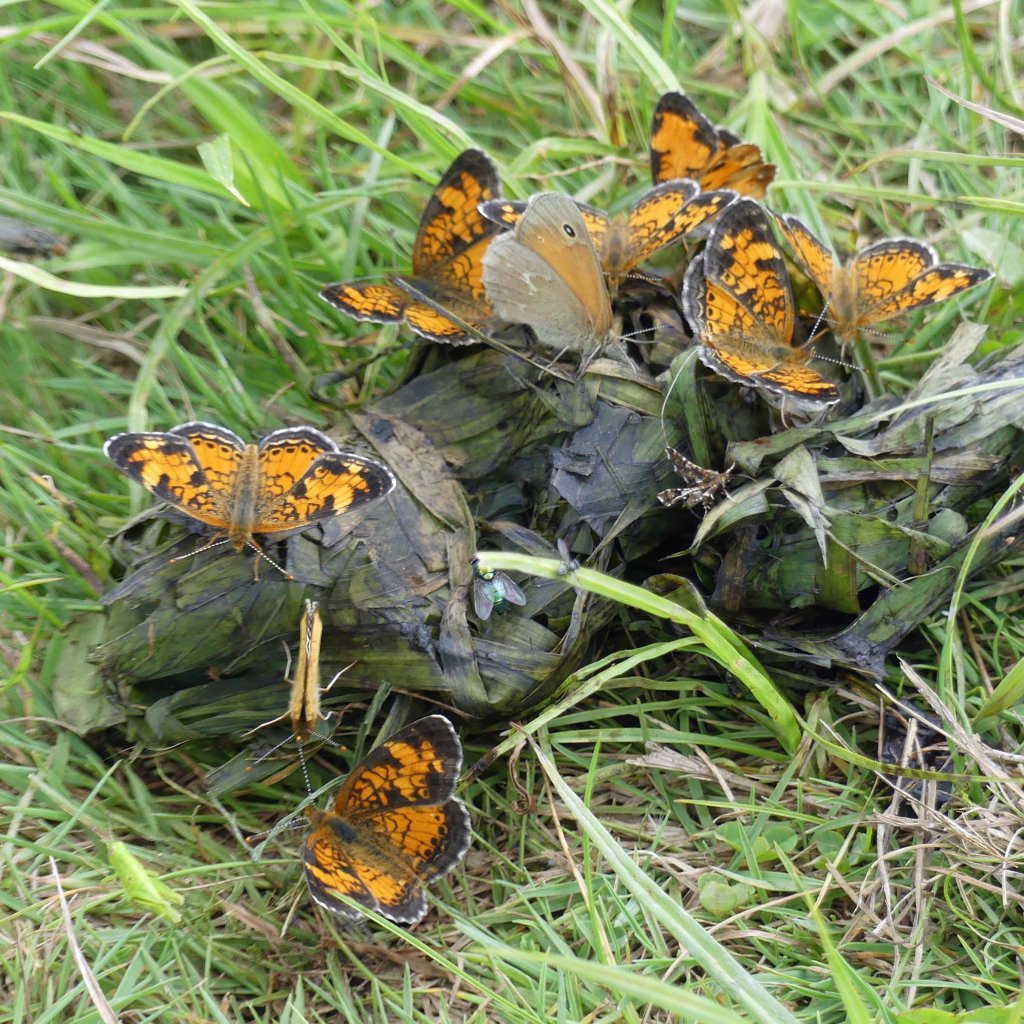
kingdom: Animalia
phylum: Arthropoda
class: Insecta
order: Lepidoptera
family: Nymphalidae
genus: Phyciodes
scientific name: Phyciodes tharos
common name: Northern Crescent
